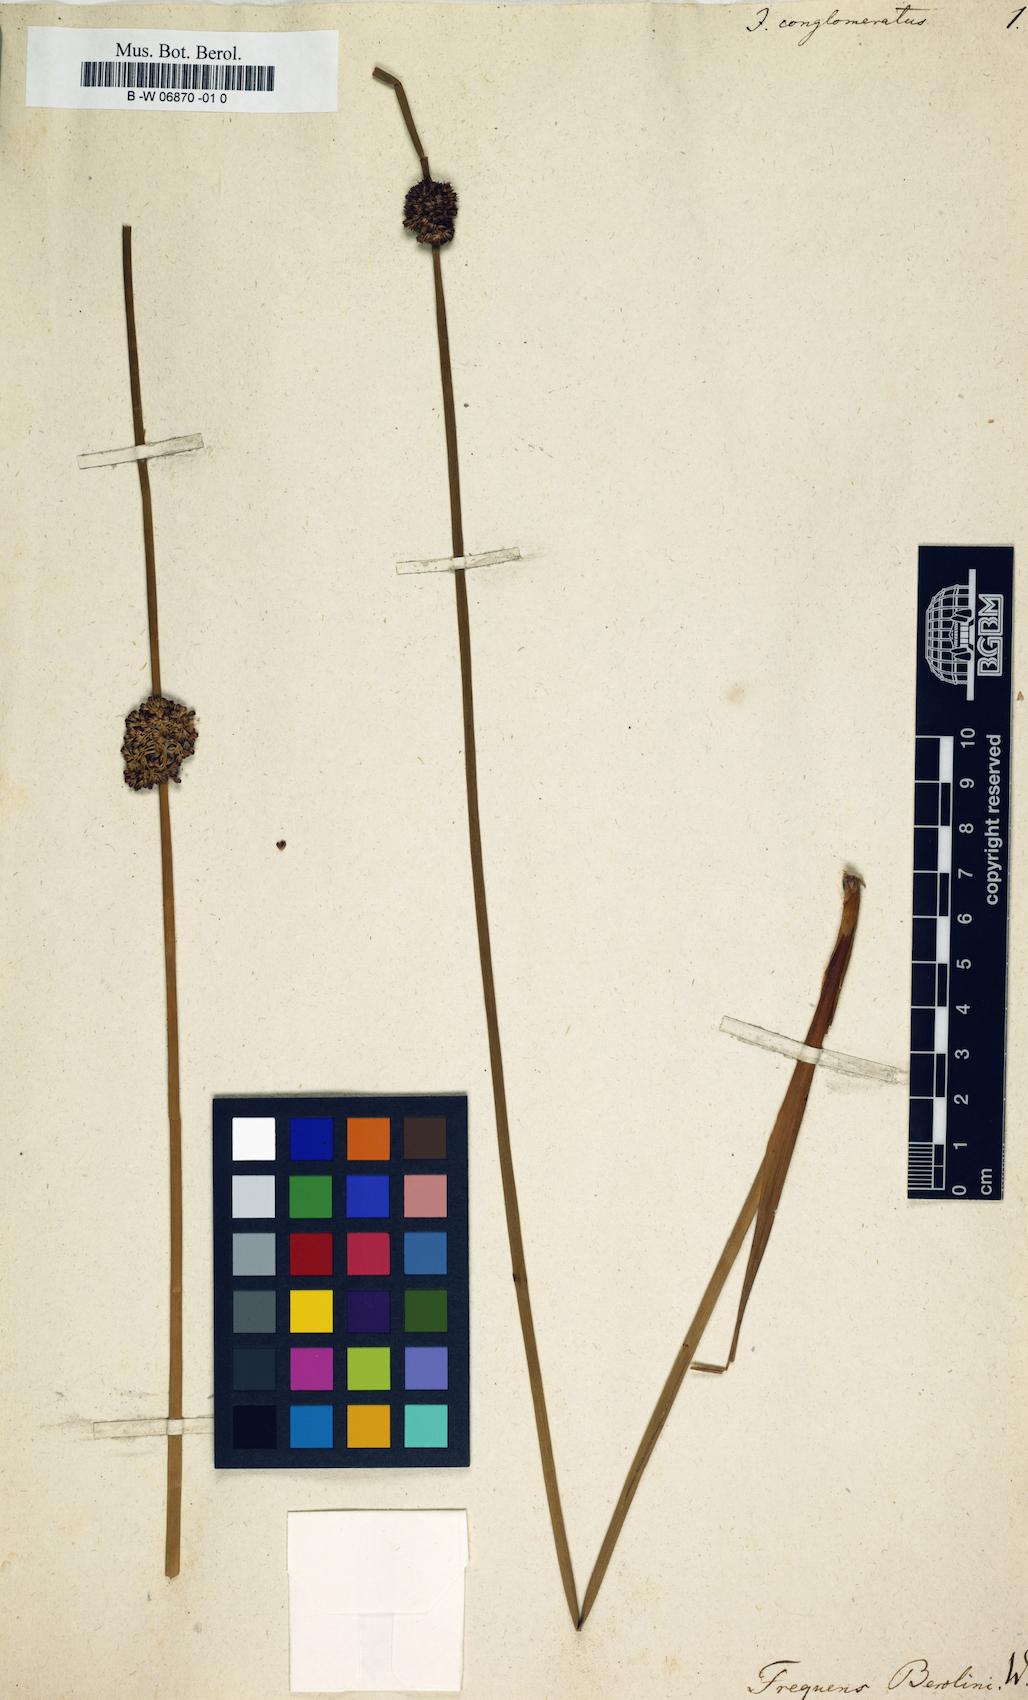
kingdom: Plantae
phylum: Tracheophyta
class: Liliopsida
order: Poales
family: Juncaceae
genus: Juncus
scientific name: Juncus conglomeratus
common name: Compact rush
